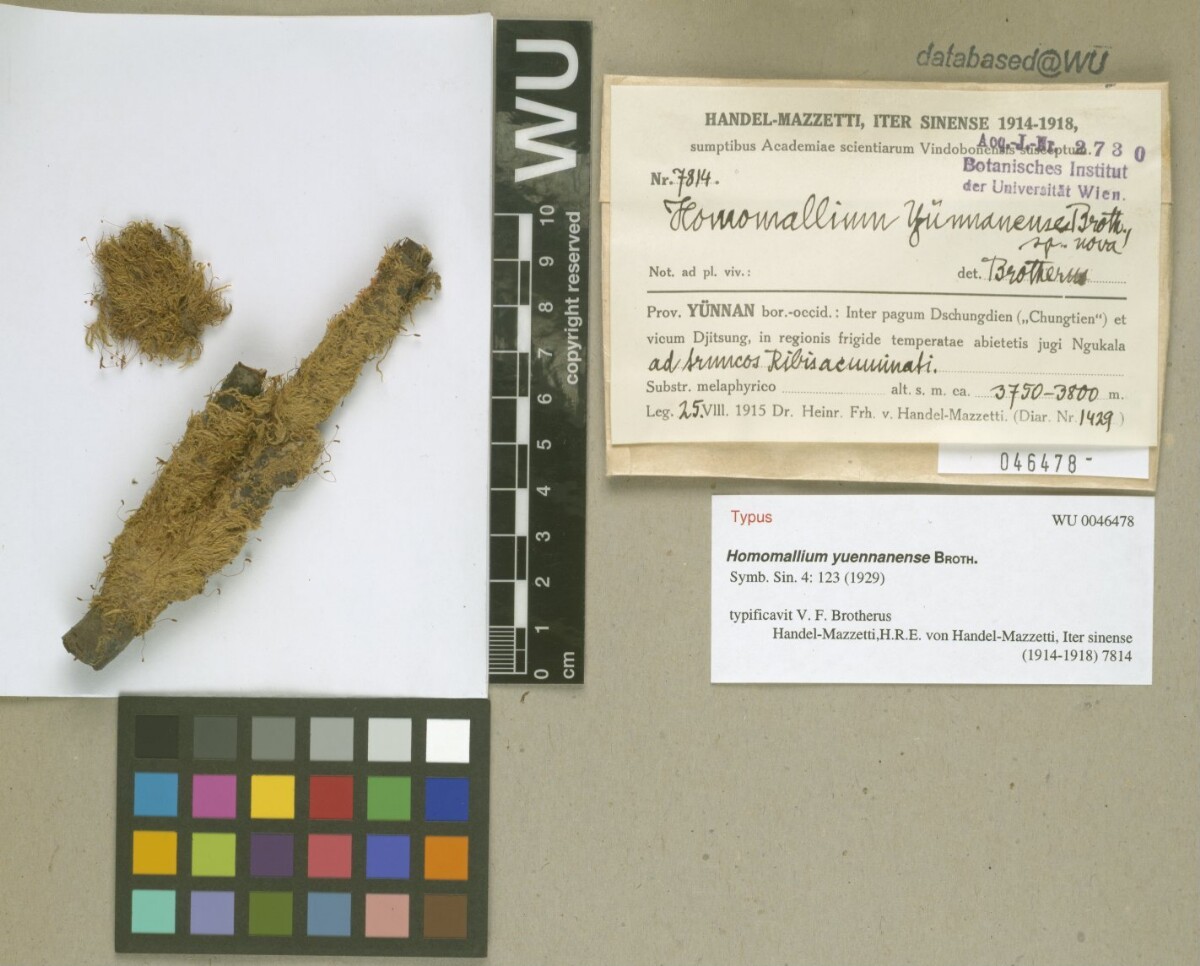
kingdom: Plantae
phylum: Bryophyta
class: Bryopsida
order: Hypnales
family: Pylaisiaceae
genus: Homomallium
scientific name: Homomallium yuennanense
